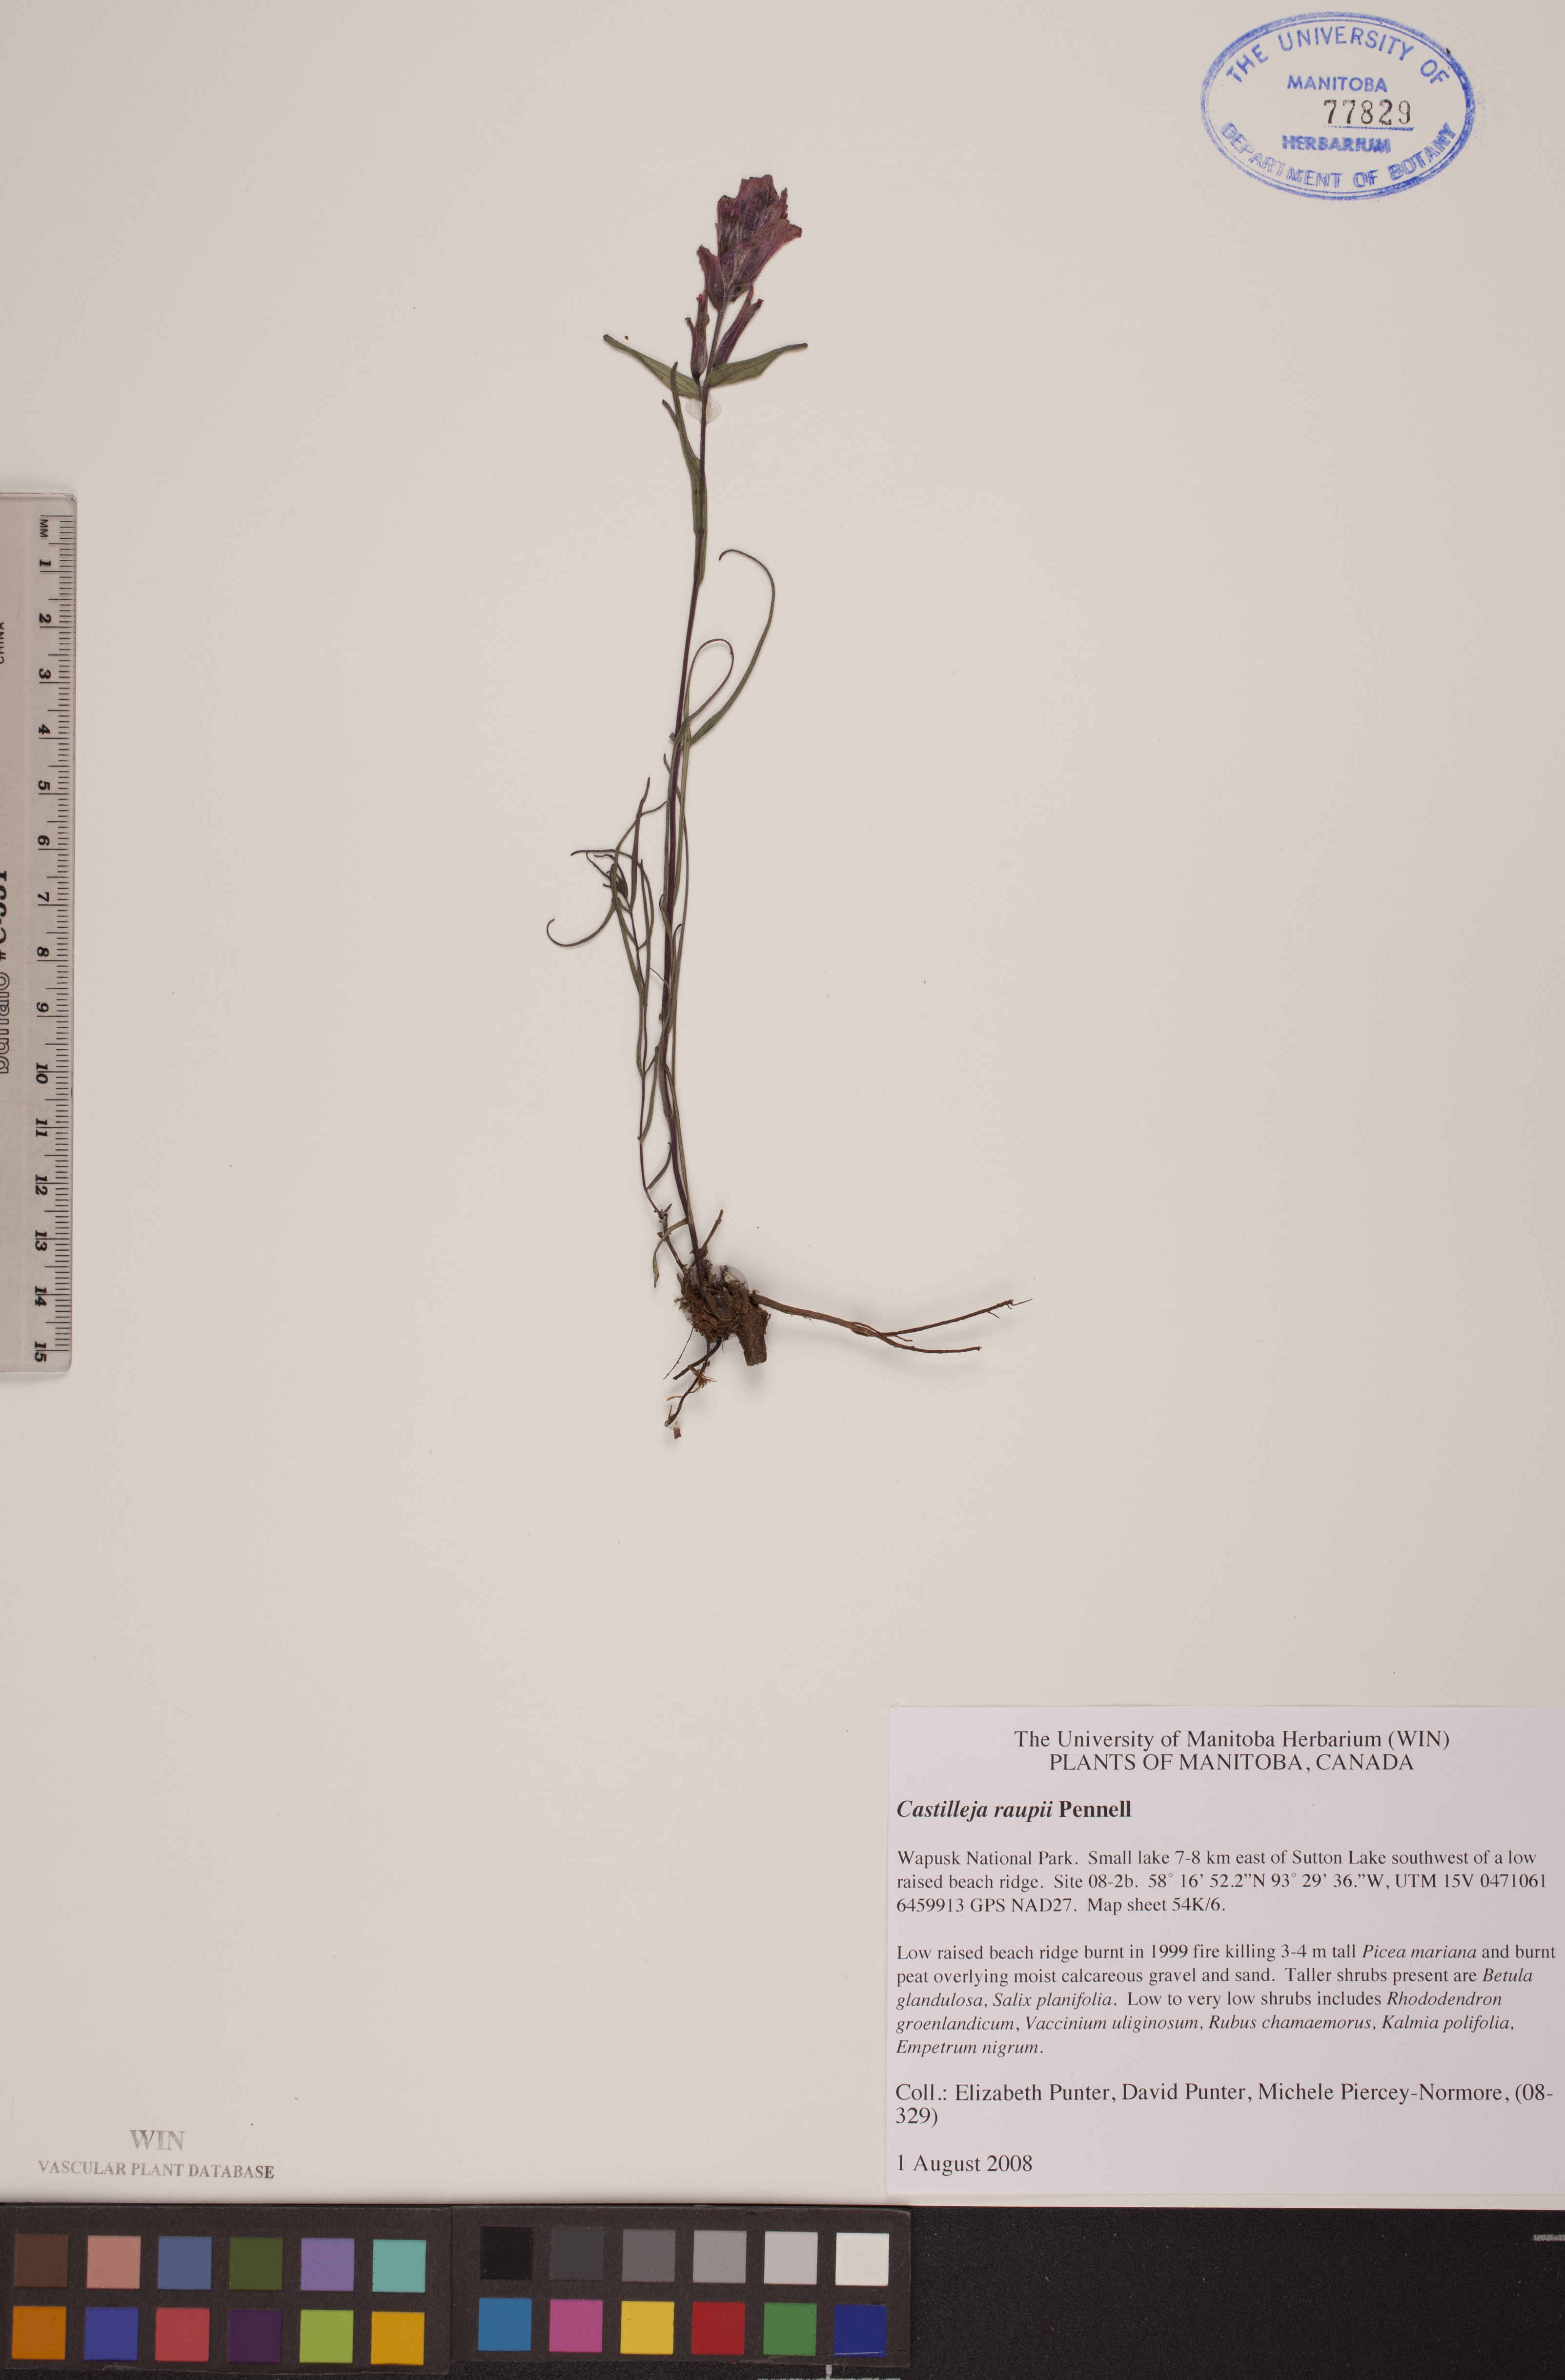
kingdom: Plantae
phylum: Tracheophyta
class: Magnoliopsida
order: Lamiales
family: Orobanchaceae
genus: Castilleja
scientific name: Castilleja raupii
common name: Raup's paintbrush
